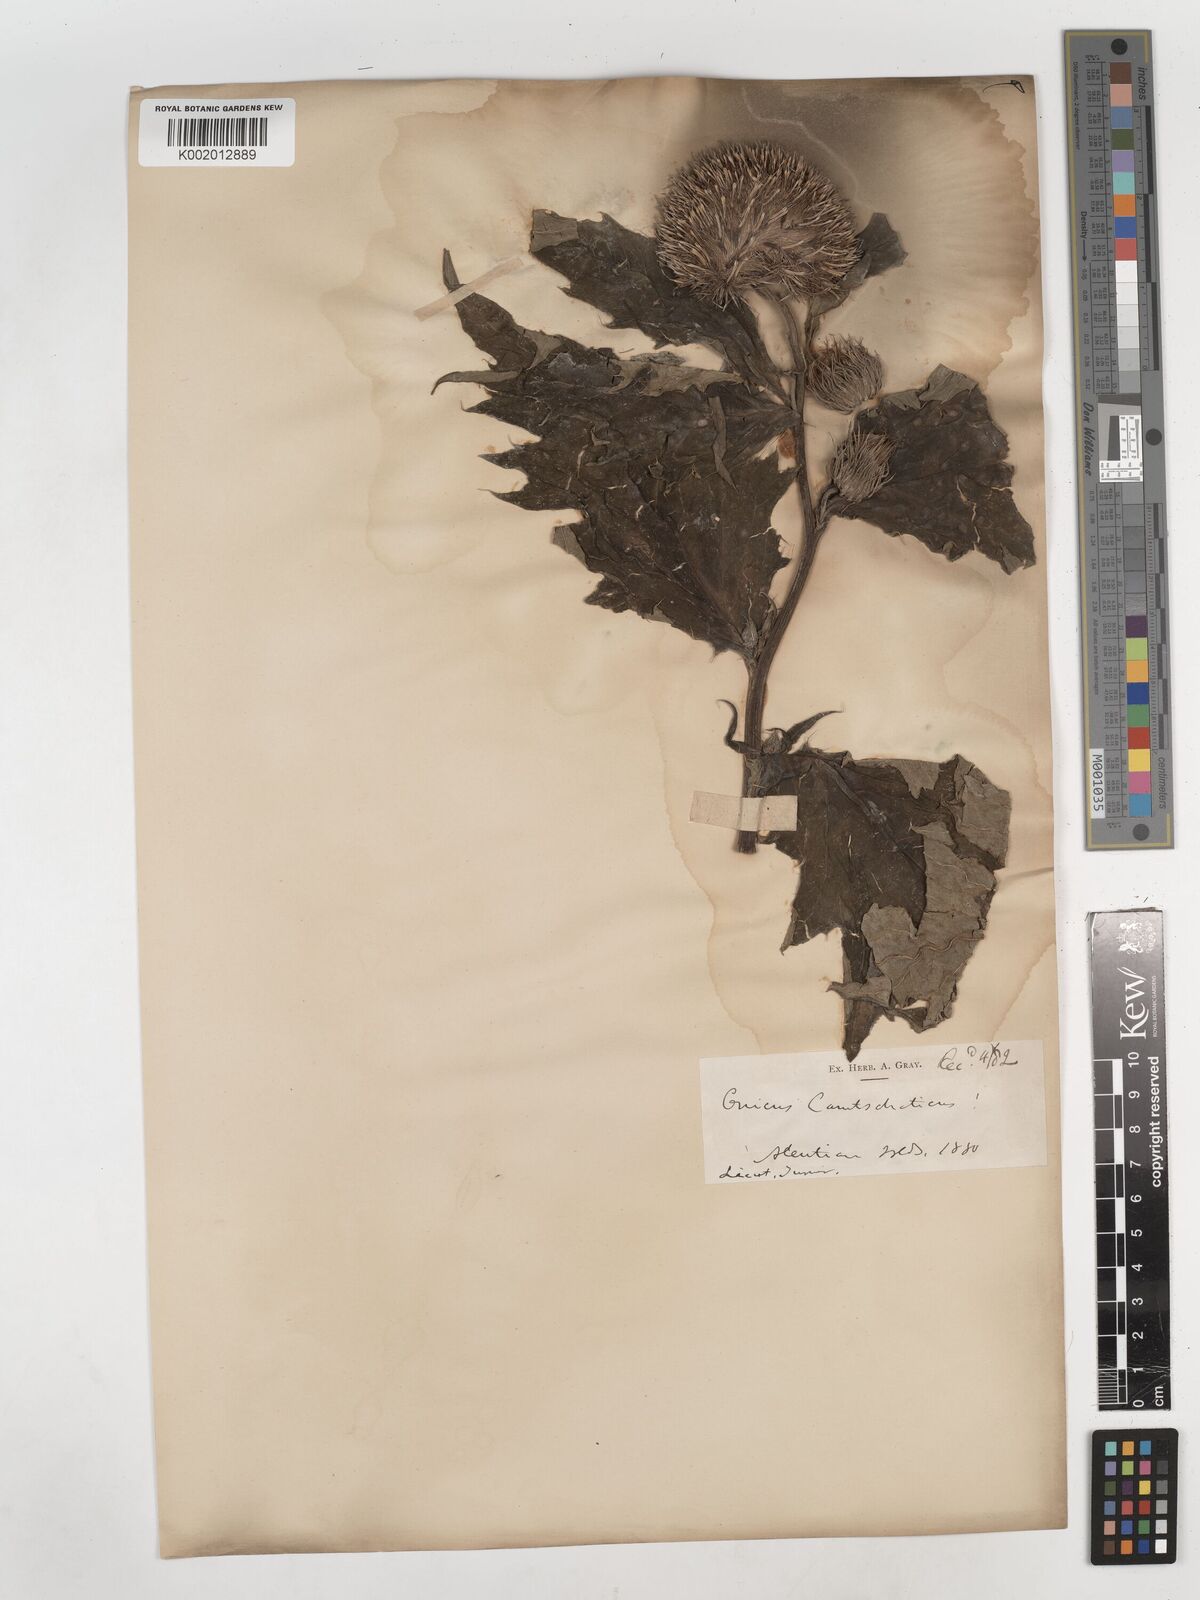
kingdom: Plantae
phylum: Tracheophyta
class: Magnoliopsida
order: Asterales
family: Asteraceae
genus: Cirsium
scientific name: Cirsium kamtschaticum
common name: Kamchatka thistle
